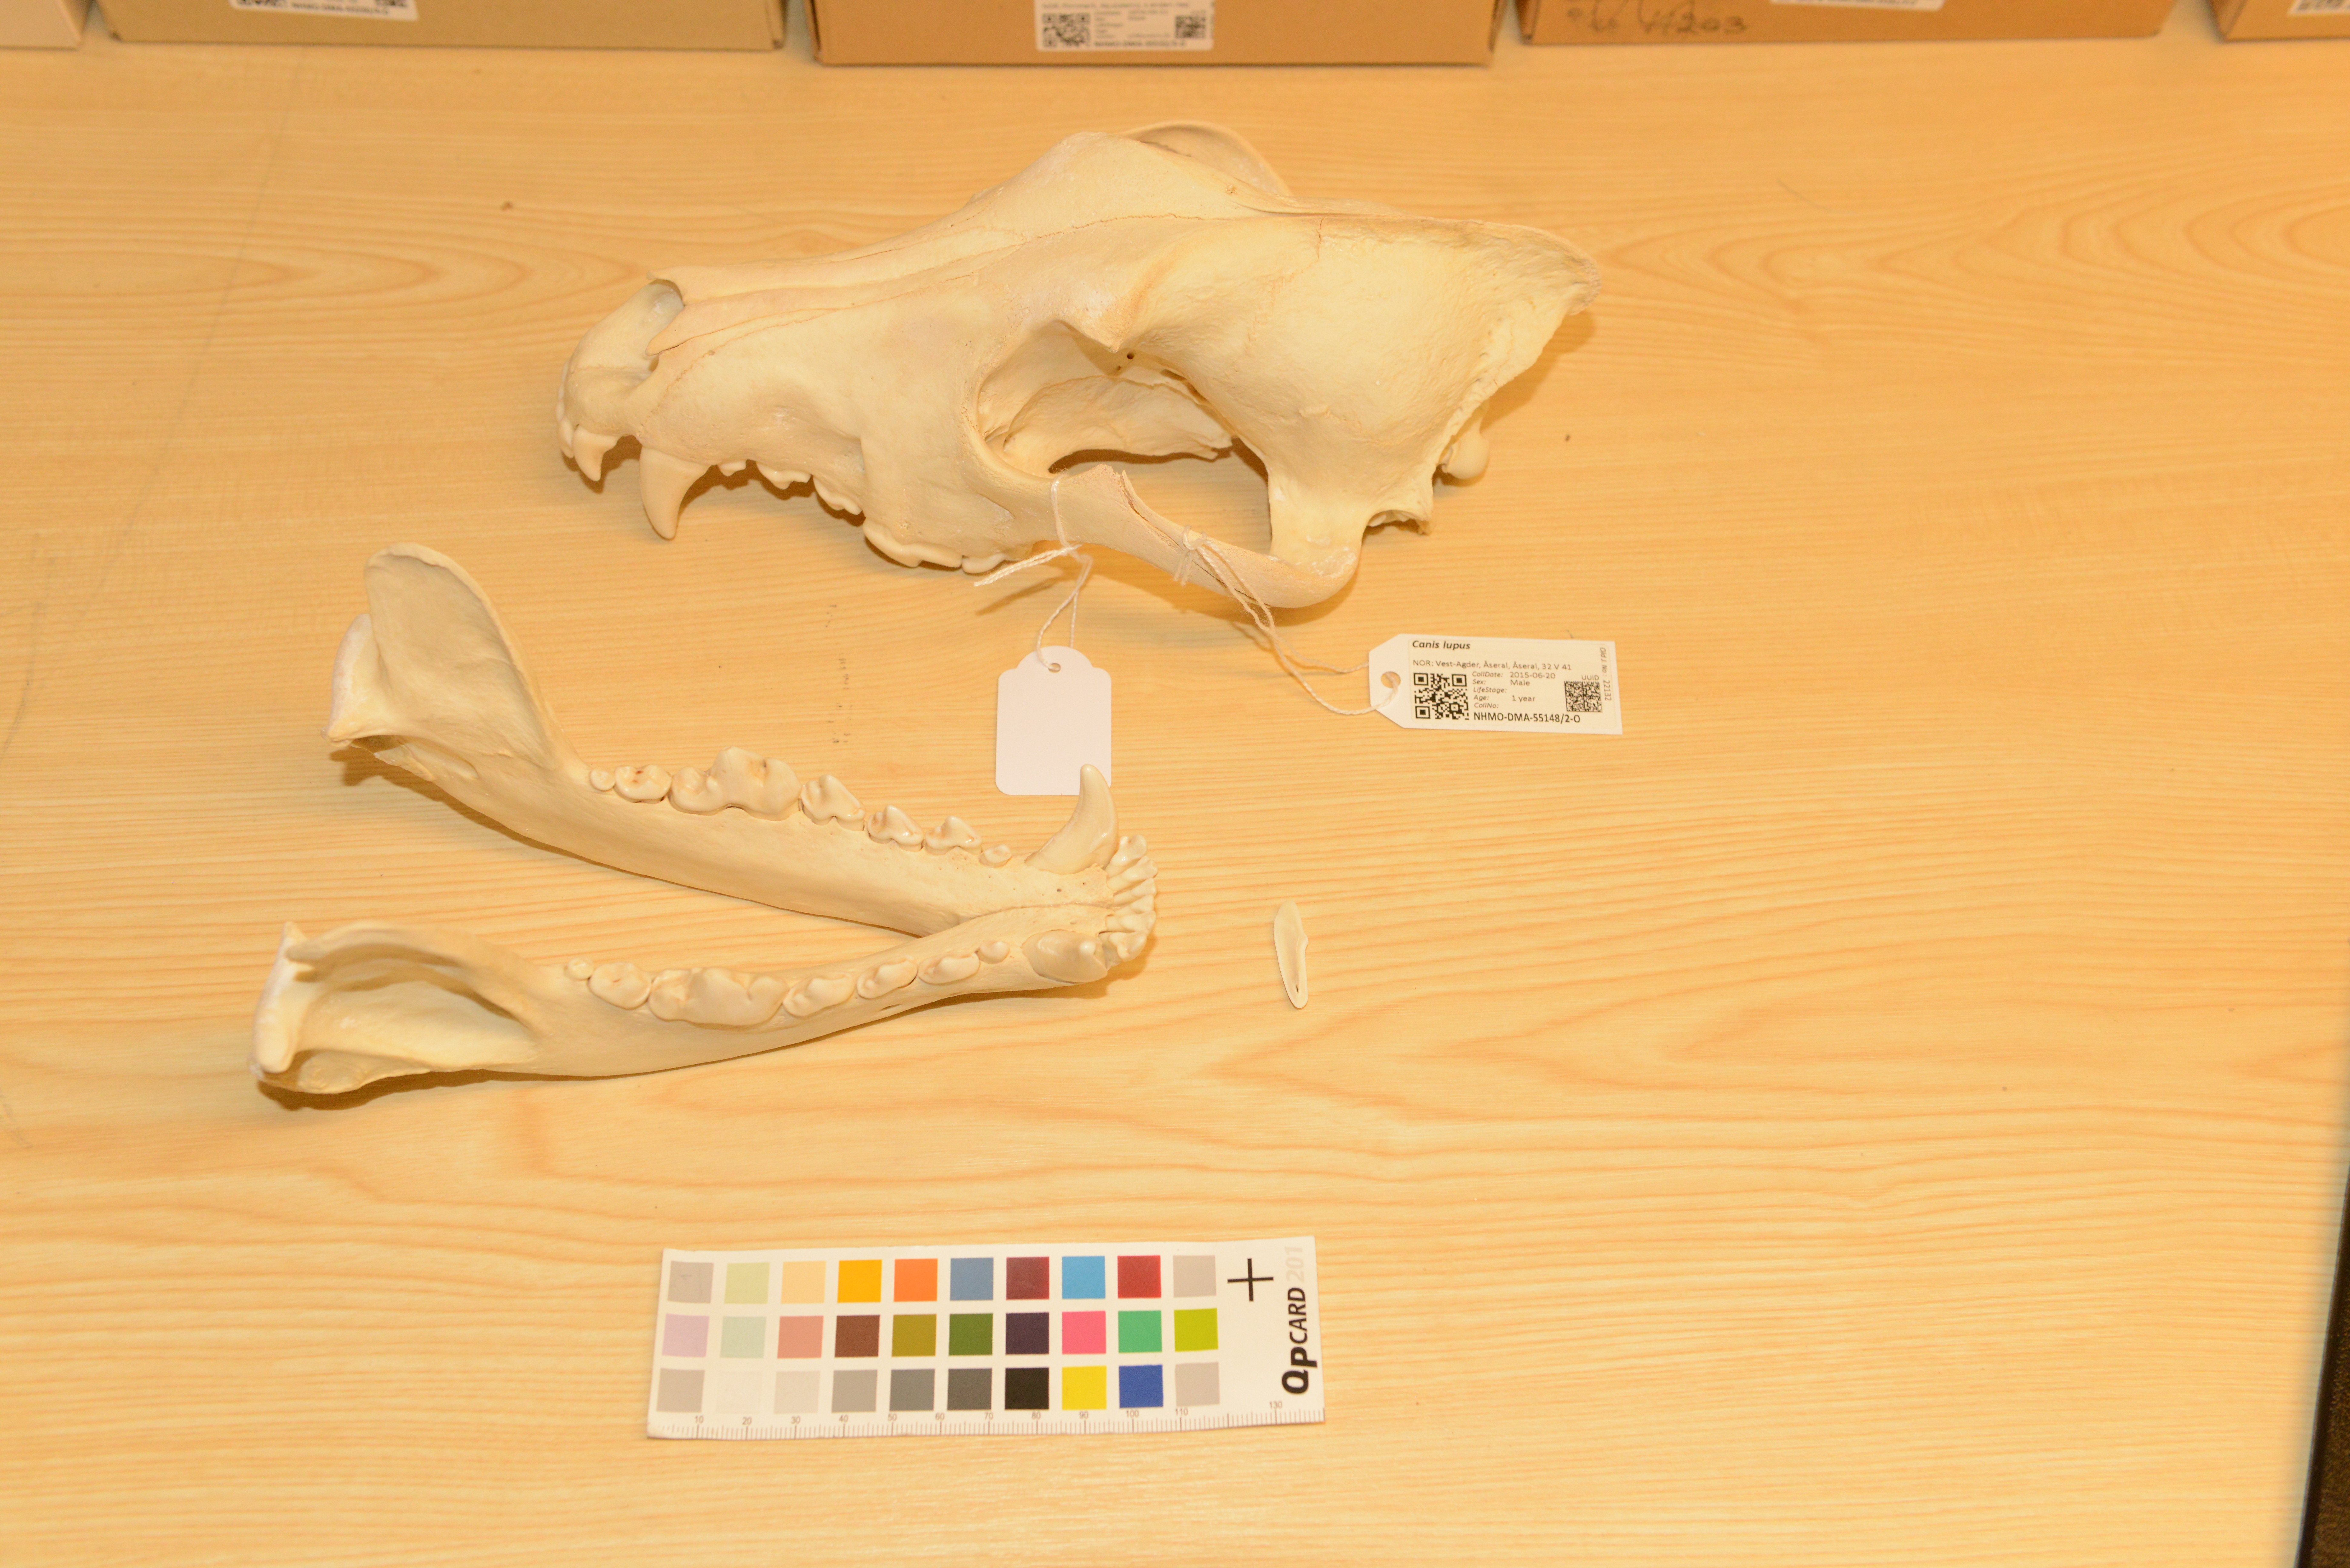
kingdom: Animalia
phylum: Chordata
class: Mammalia
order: Carnivora
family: Canidae
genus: Canis
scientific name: Canis lupus
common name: Gray wolf
